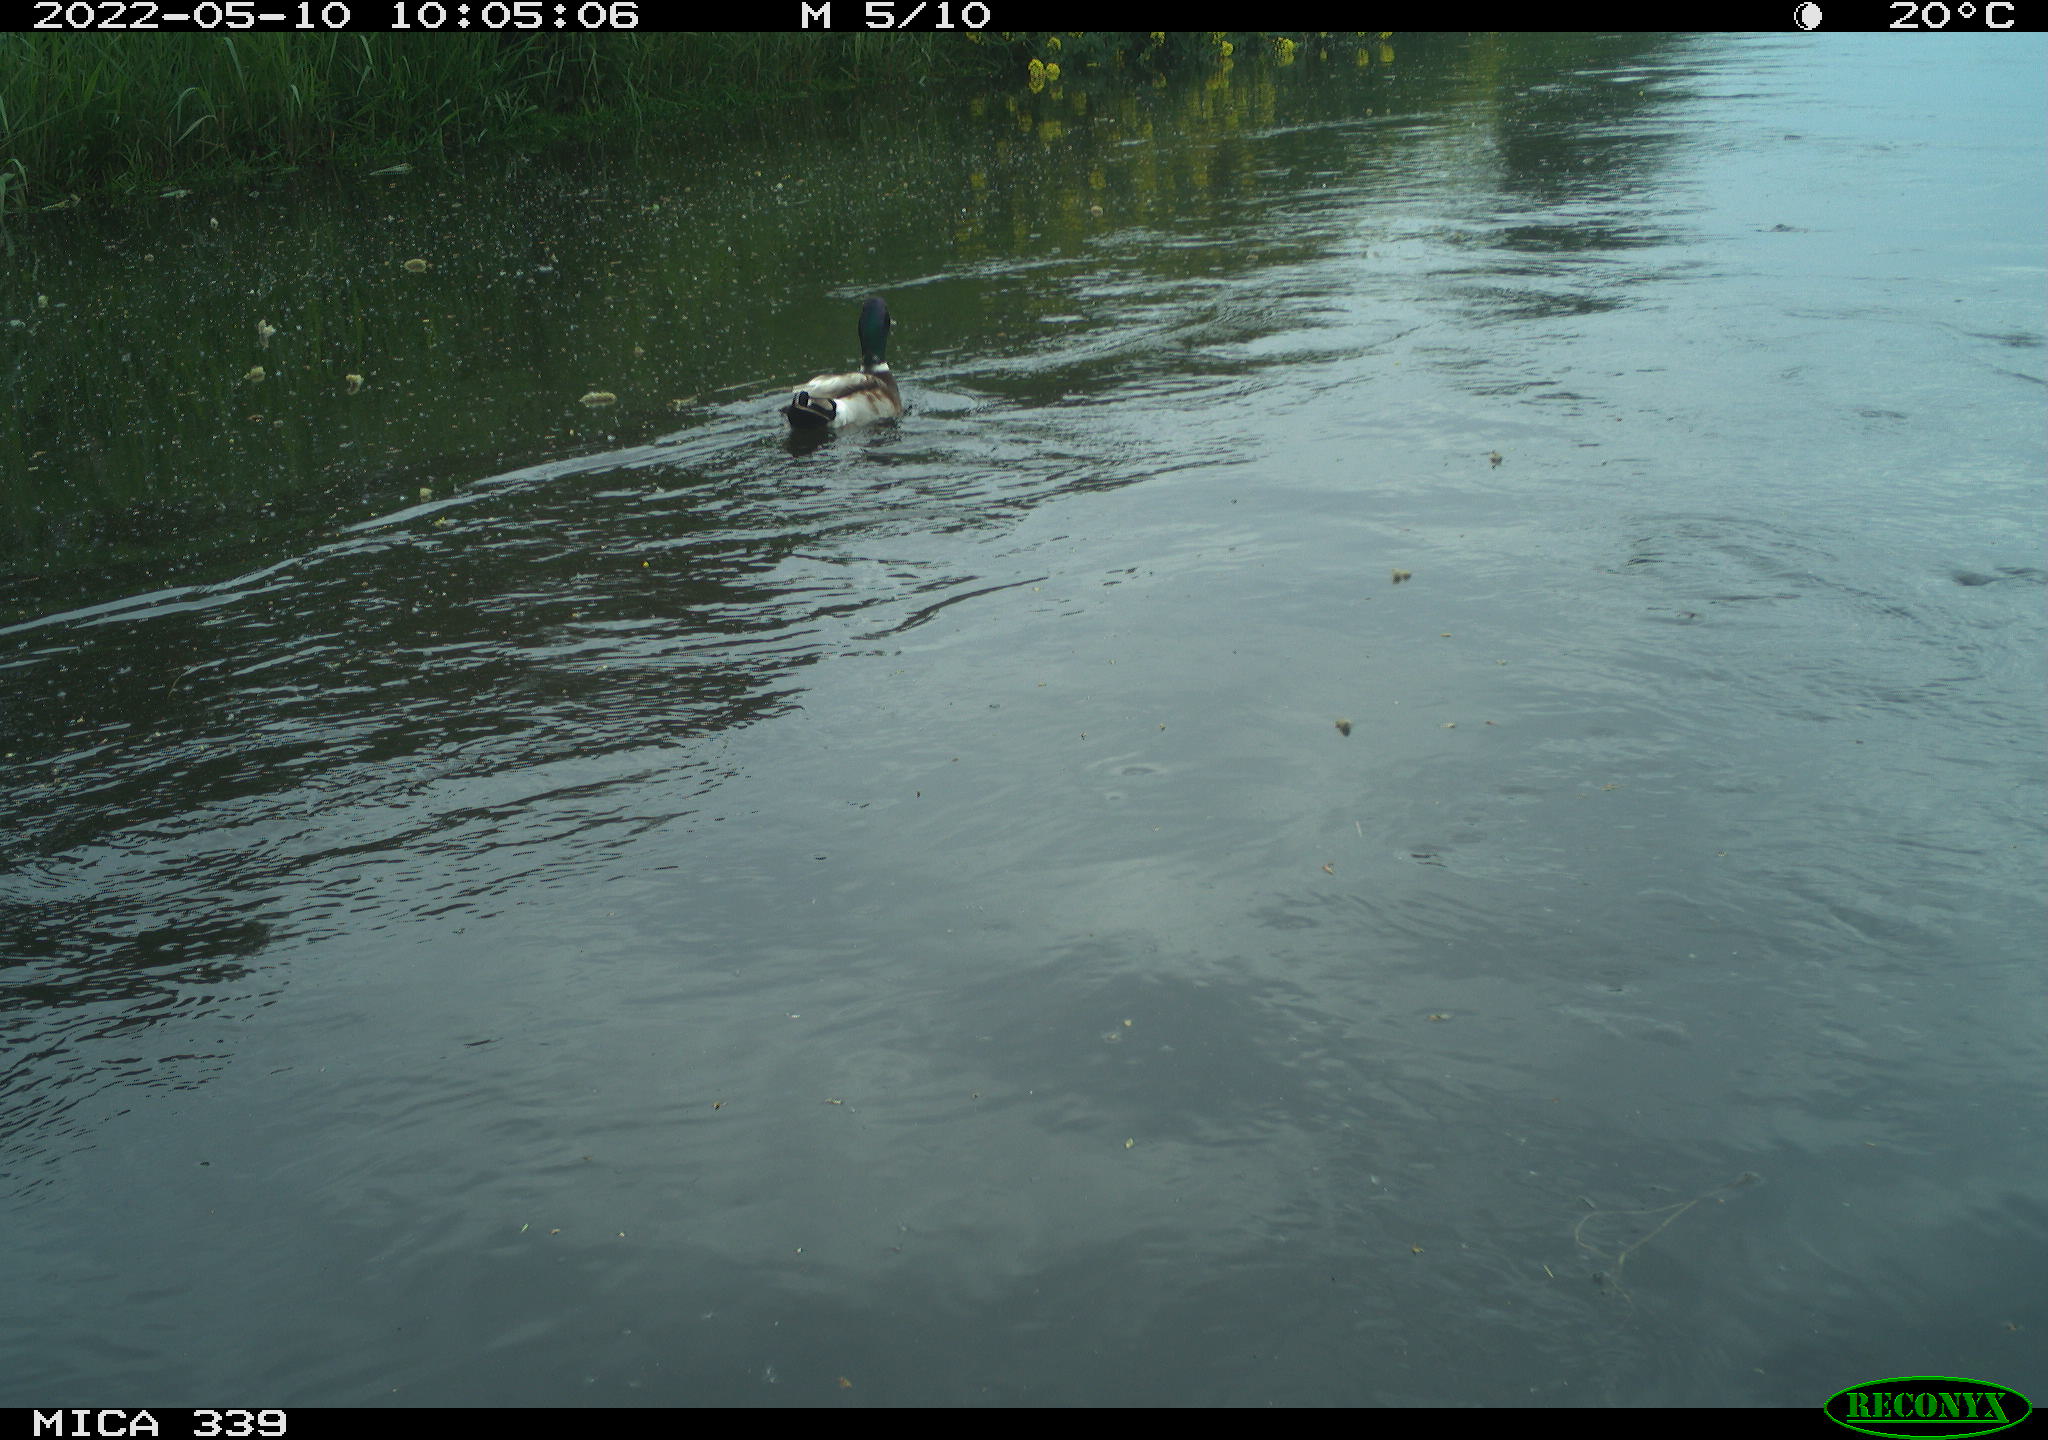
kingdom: Animalia
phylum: Chordata
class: Aves
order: Anseriformes
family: Anatidae
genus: Anas
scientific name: Anas platyrhynchos
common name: Mallard
